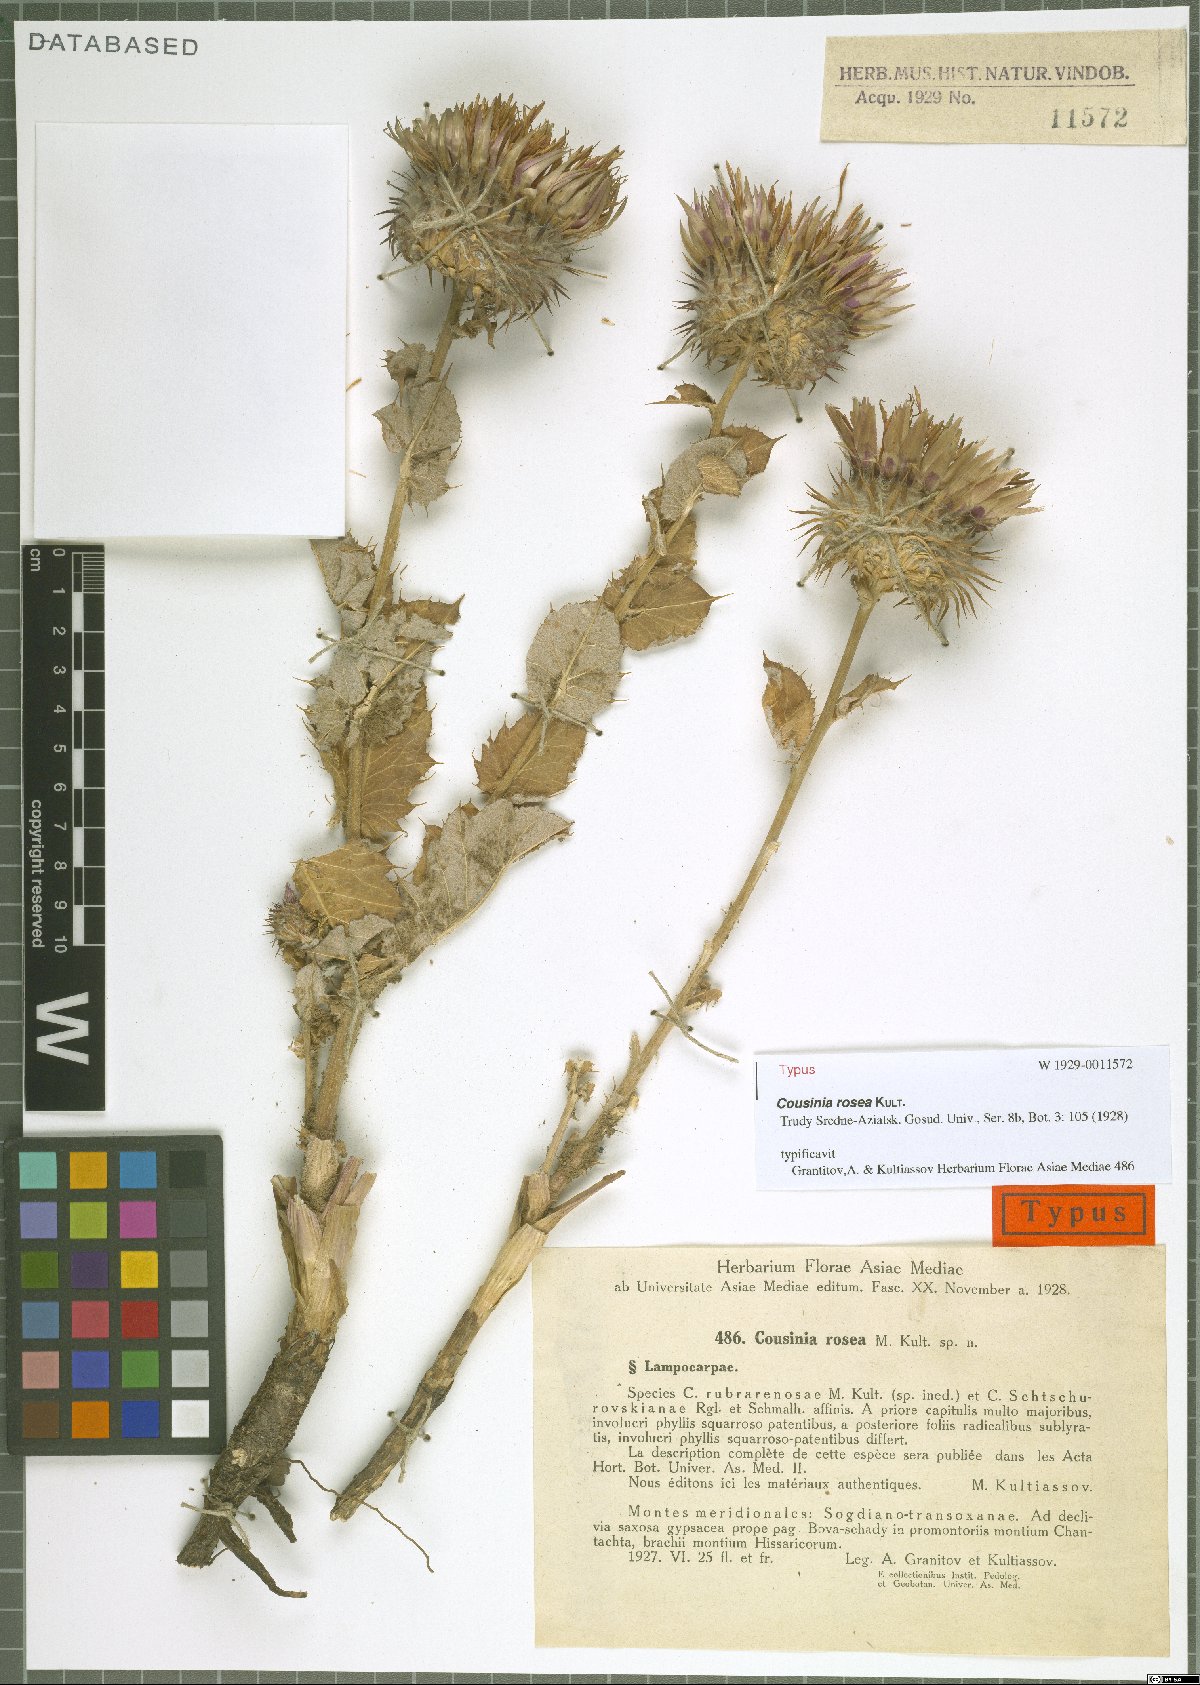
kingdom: Plantae
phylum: Tracheophyta
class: Magnoliopsida
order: Asterales
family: Asteraceae
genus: Cousinia
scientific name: Cousinia rosea
